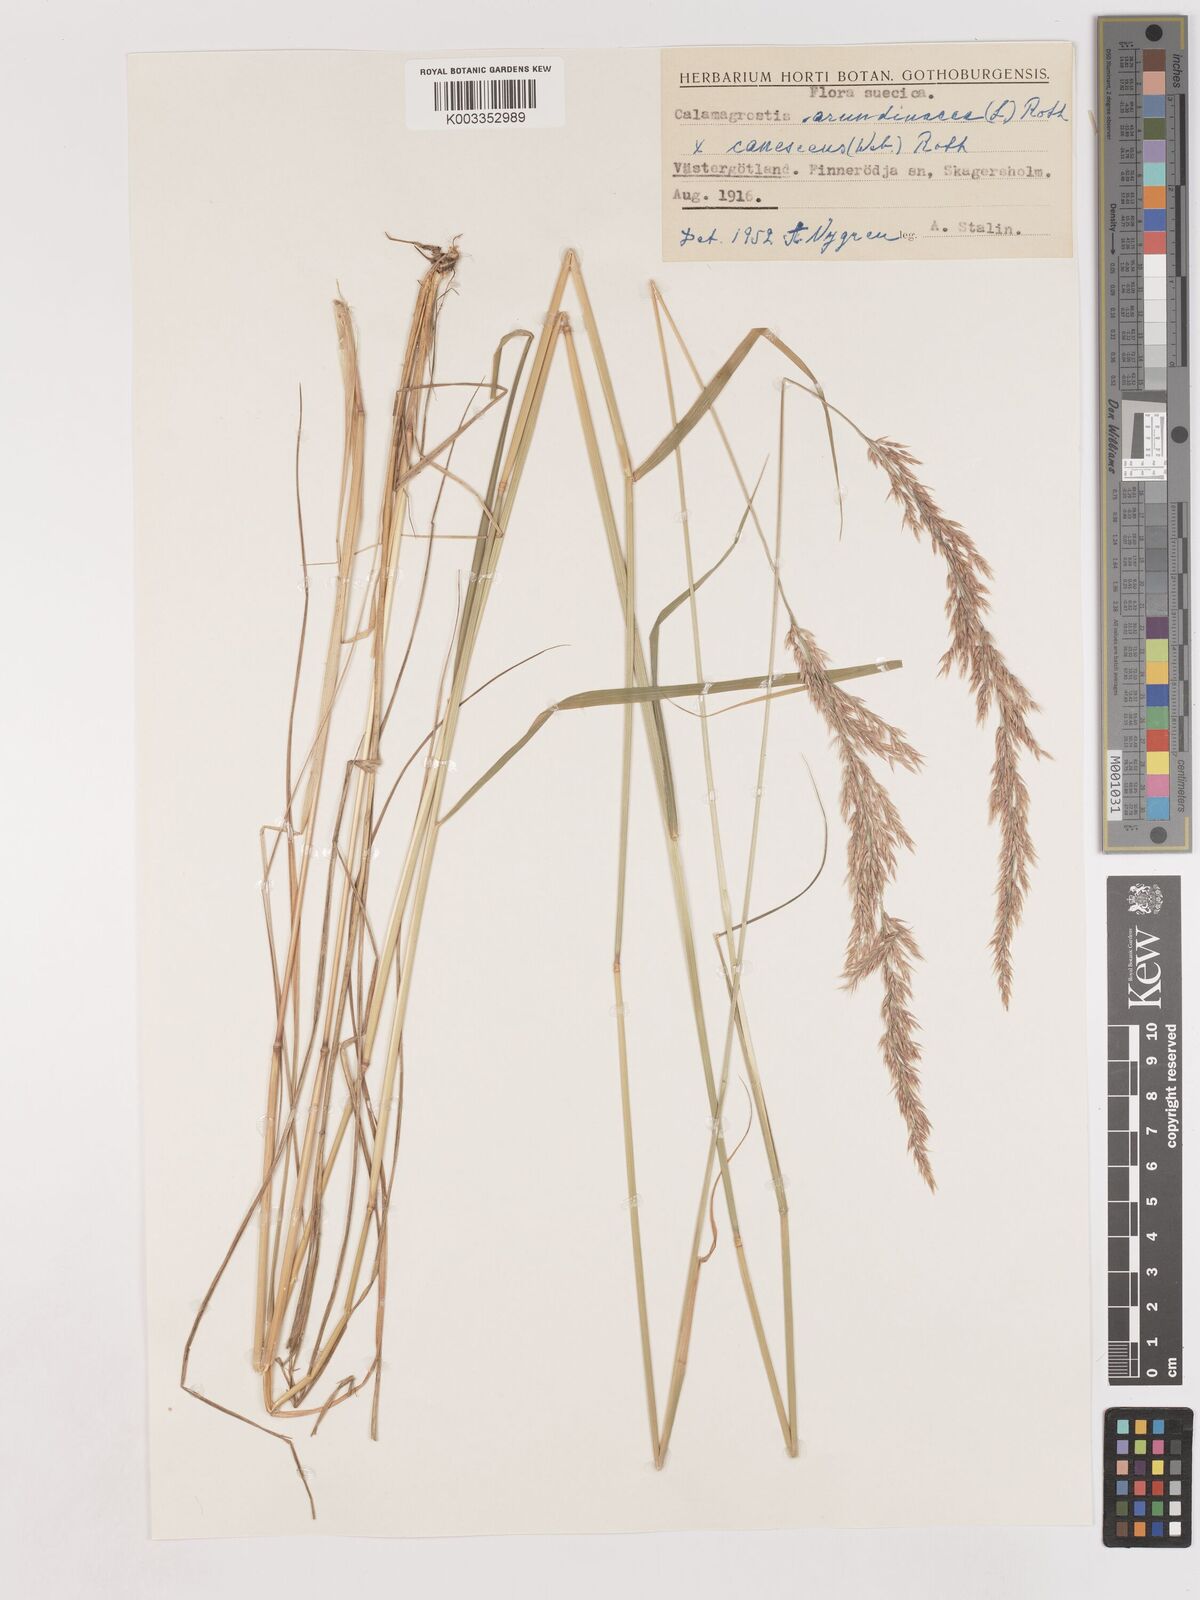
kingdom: Plantae
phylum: Tracheophyta
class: Liliopsida
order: Poales
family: Poaceae
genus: Calamagrostis
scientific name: Calamagrostis canescens
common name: Purple small-reed
